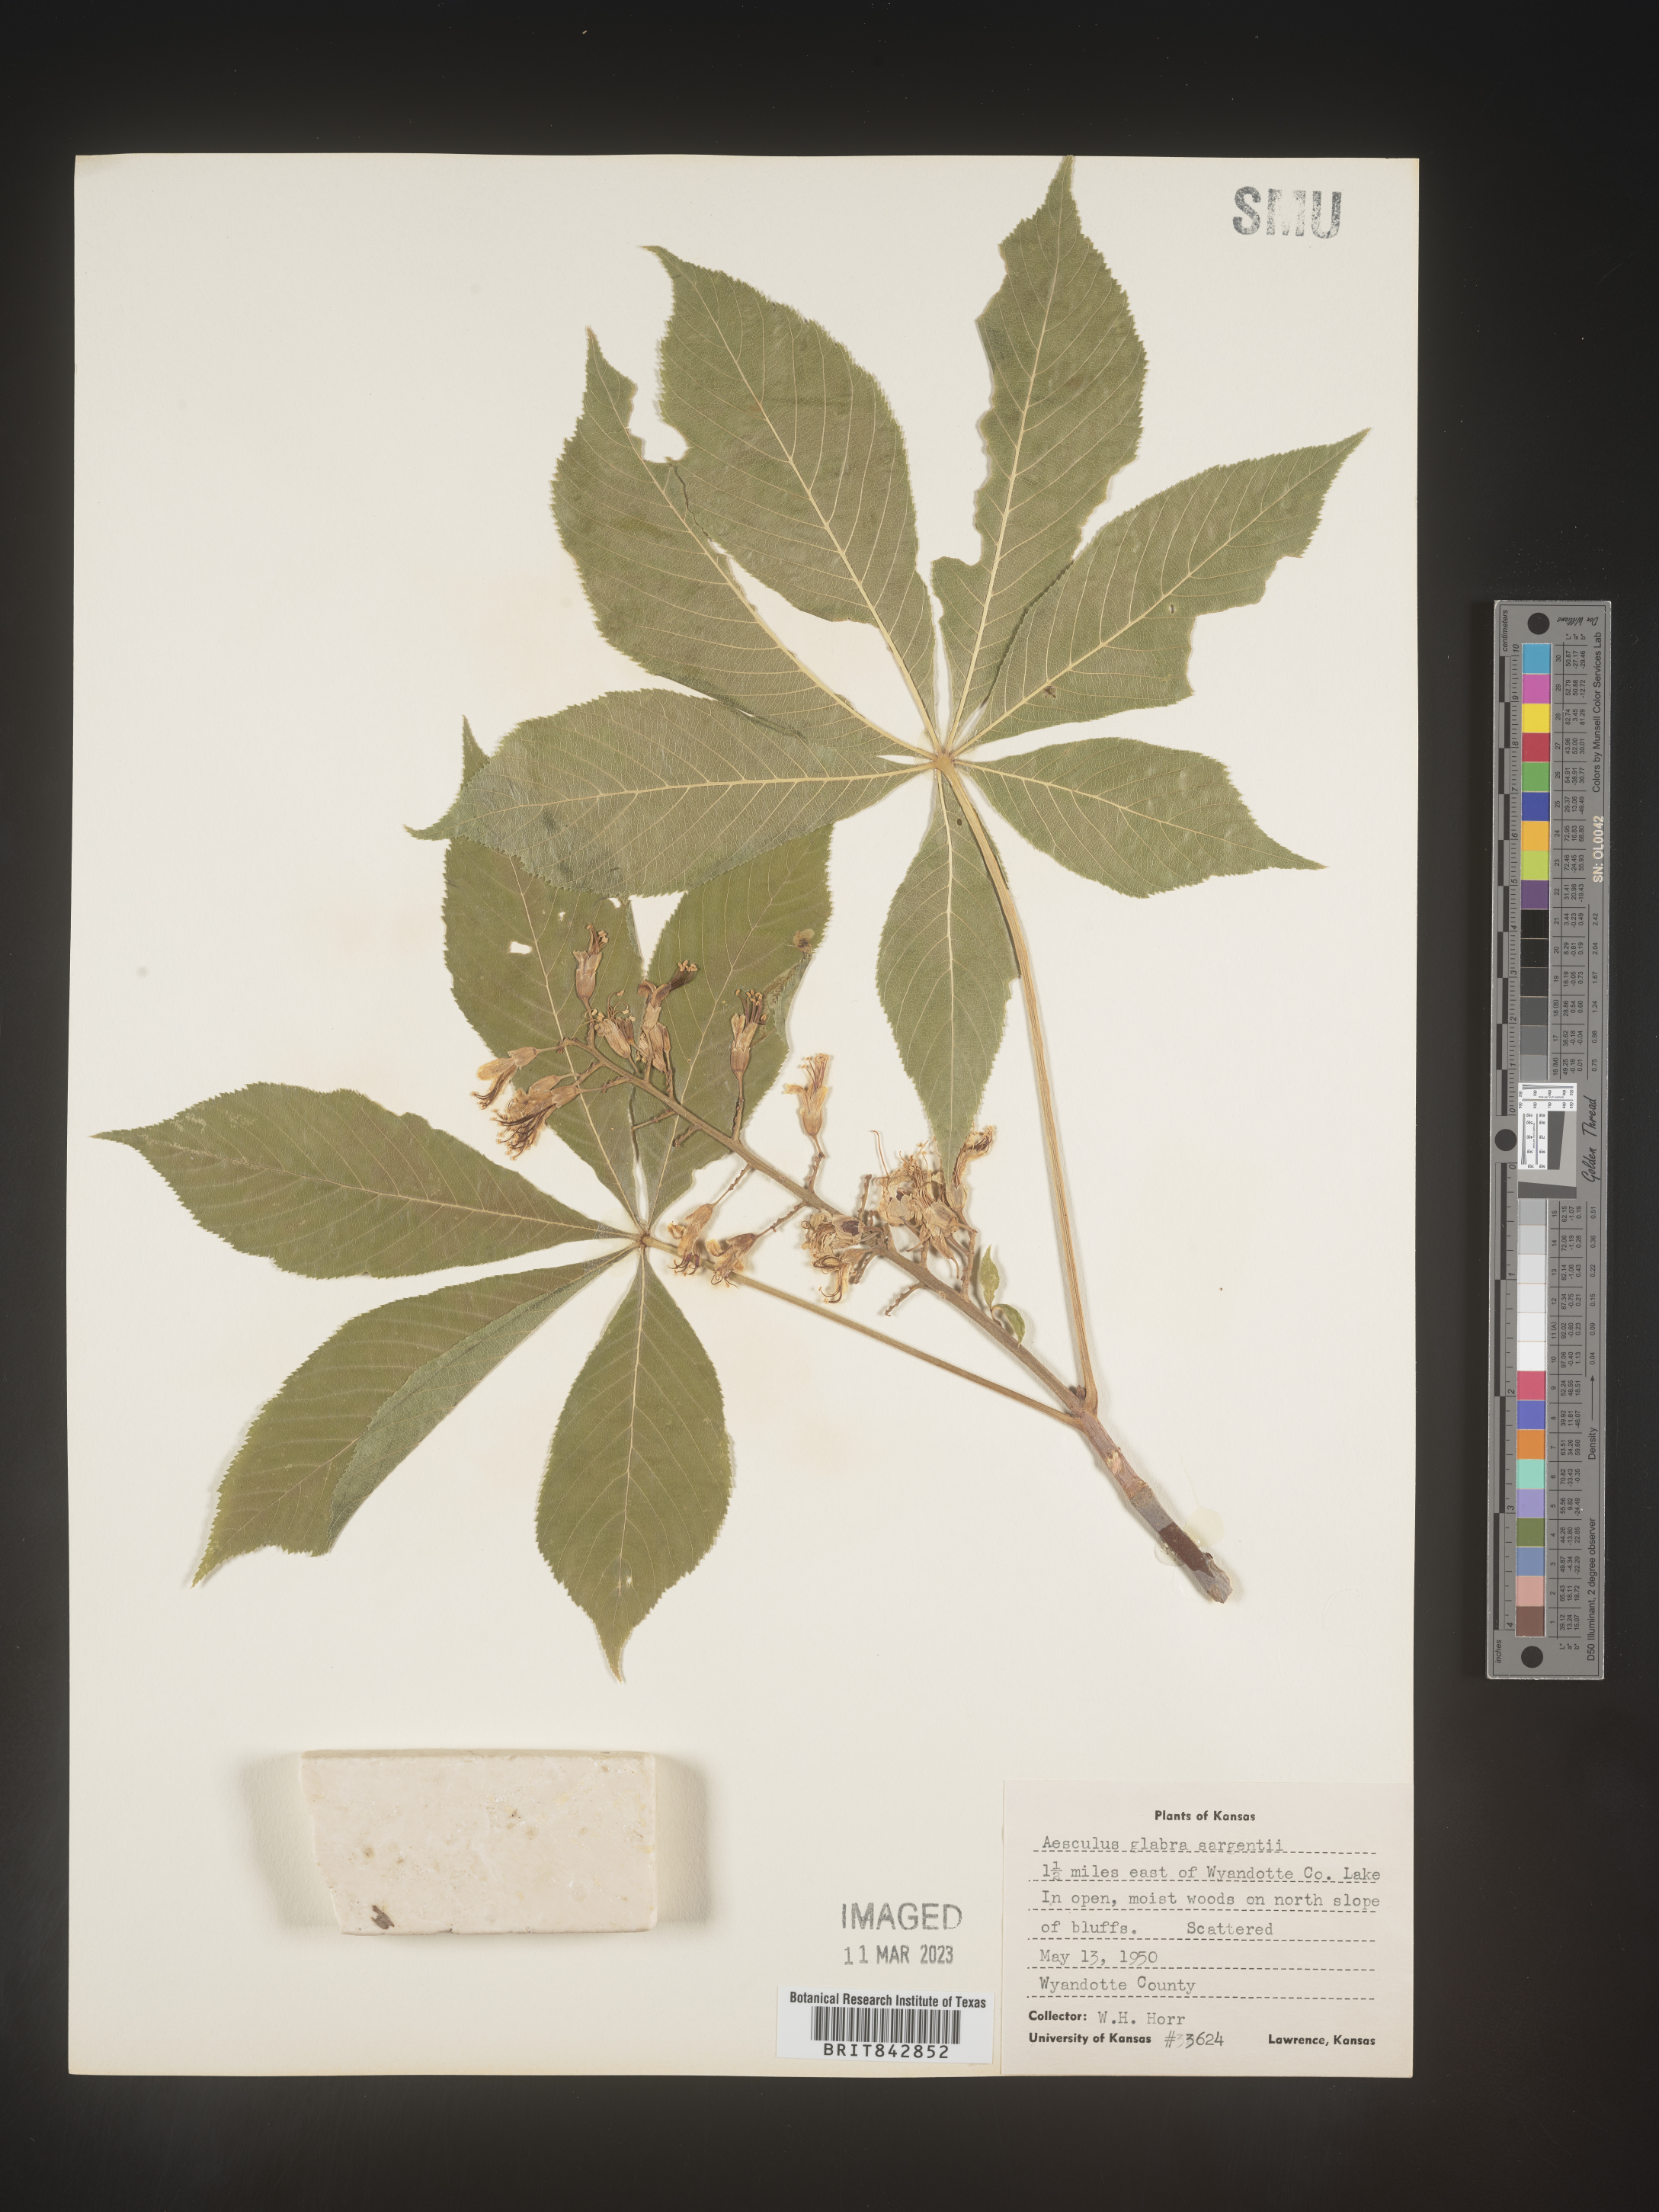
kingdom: Plantae
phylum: Tracheophyta
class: Magnoliopsida
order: Sapindales
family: Sapindaceae
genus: Aesculus
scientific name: Aesculus glabra
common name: Ohio buckeye
